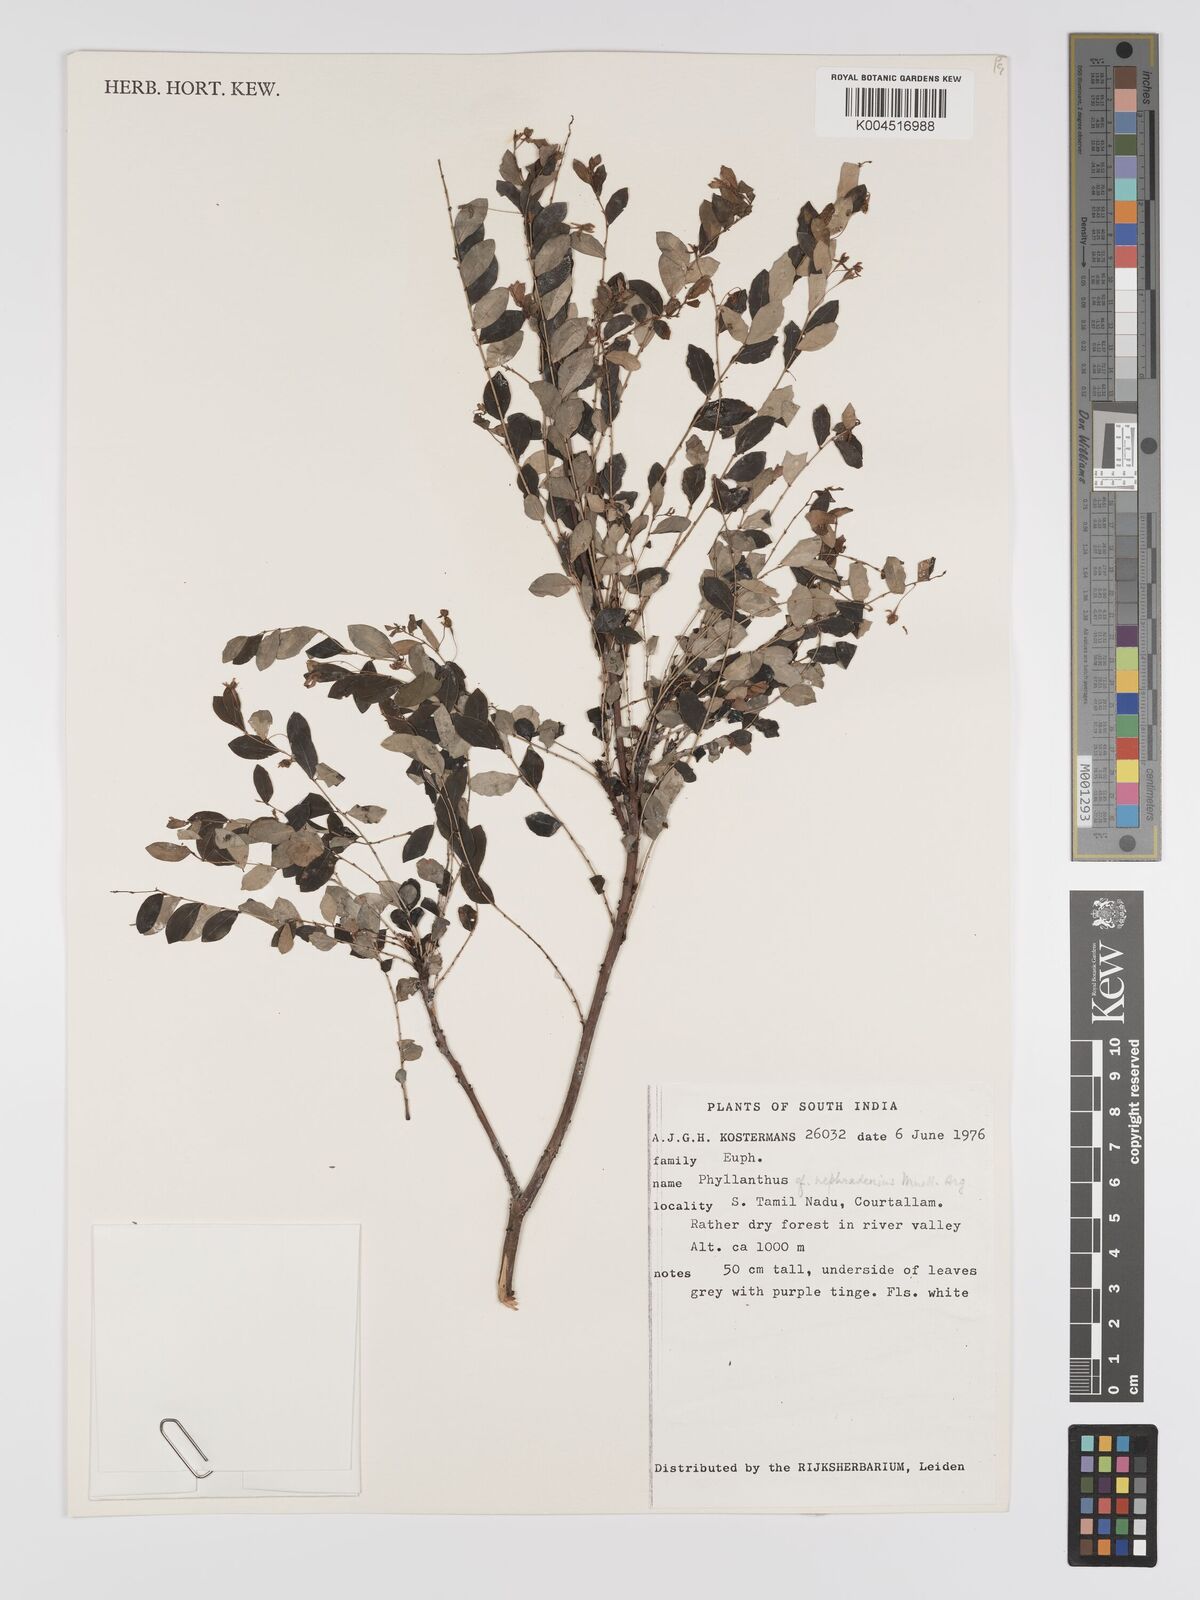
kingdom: Plantae
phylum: Tracheophyta
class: Magnoliopsida
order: Malpighiales
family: Phyllanthaceae
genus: Phyllanthus
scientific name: Phyllanthus heyneanus
